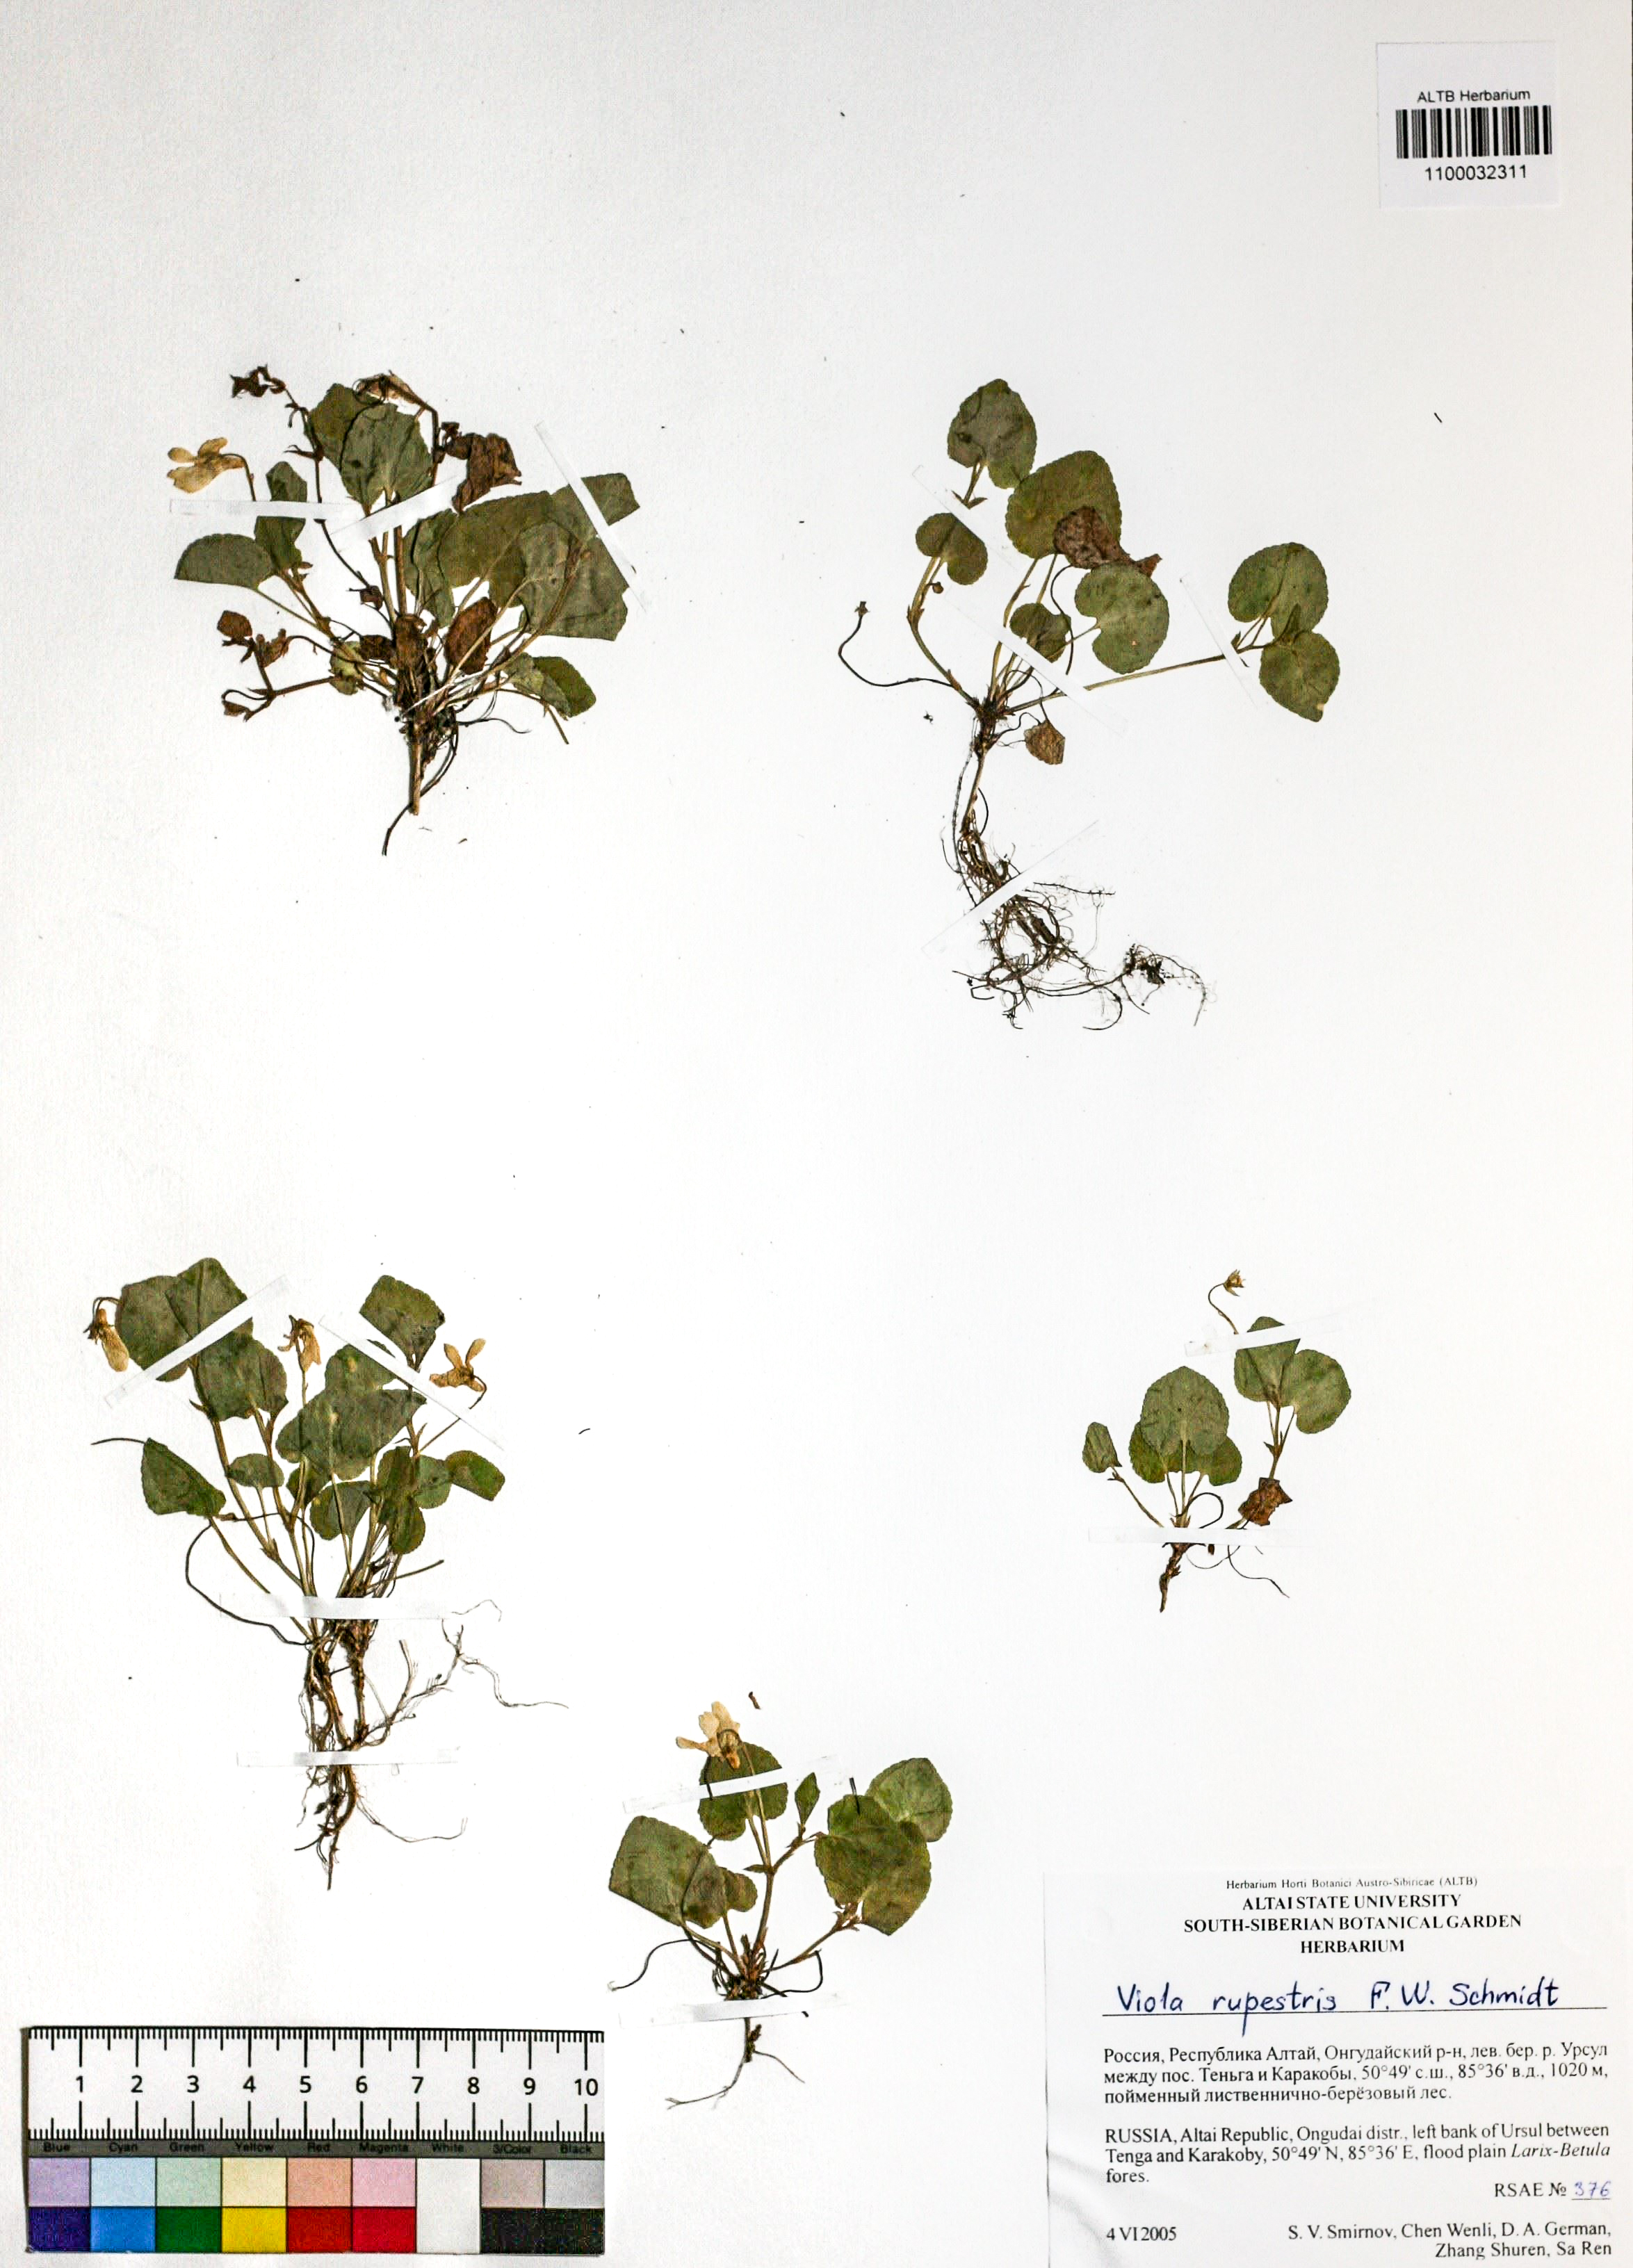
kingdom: Plantae
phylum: Tracheophyta
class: Magnoliopsida
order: Malpighiales
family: Violaceae
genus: Viola
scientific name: Viola rupestris
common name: Teesdale violet
